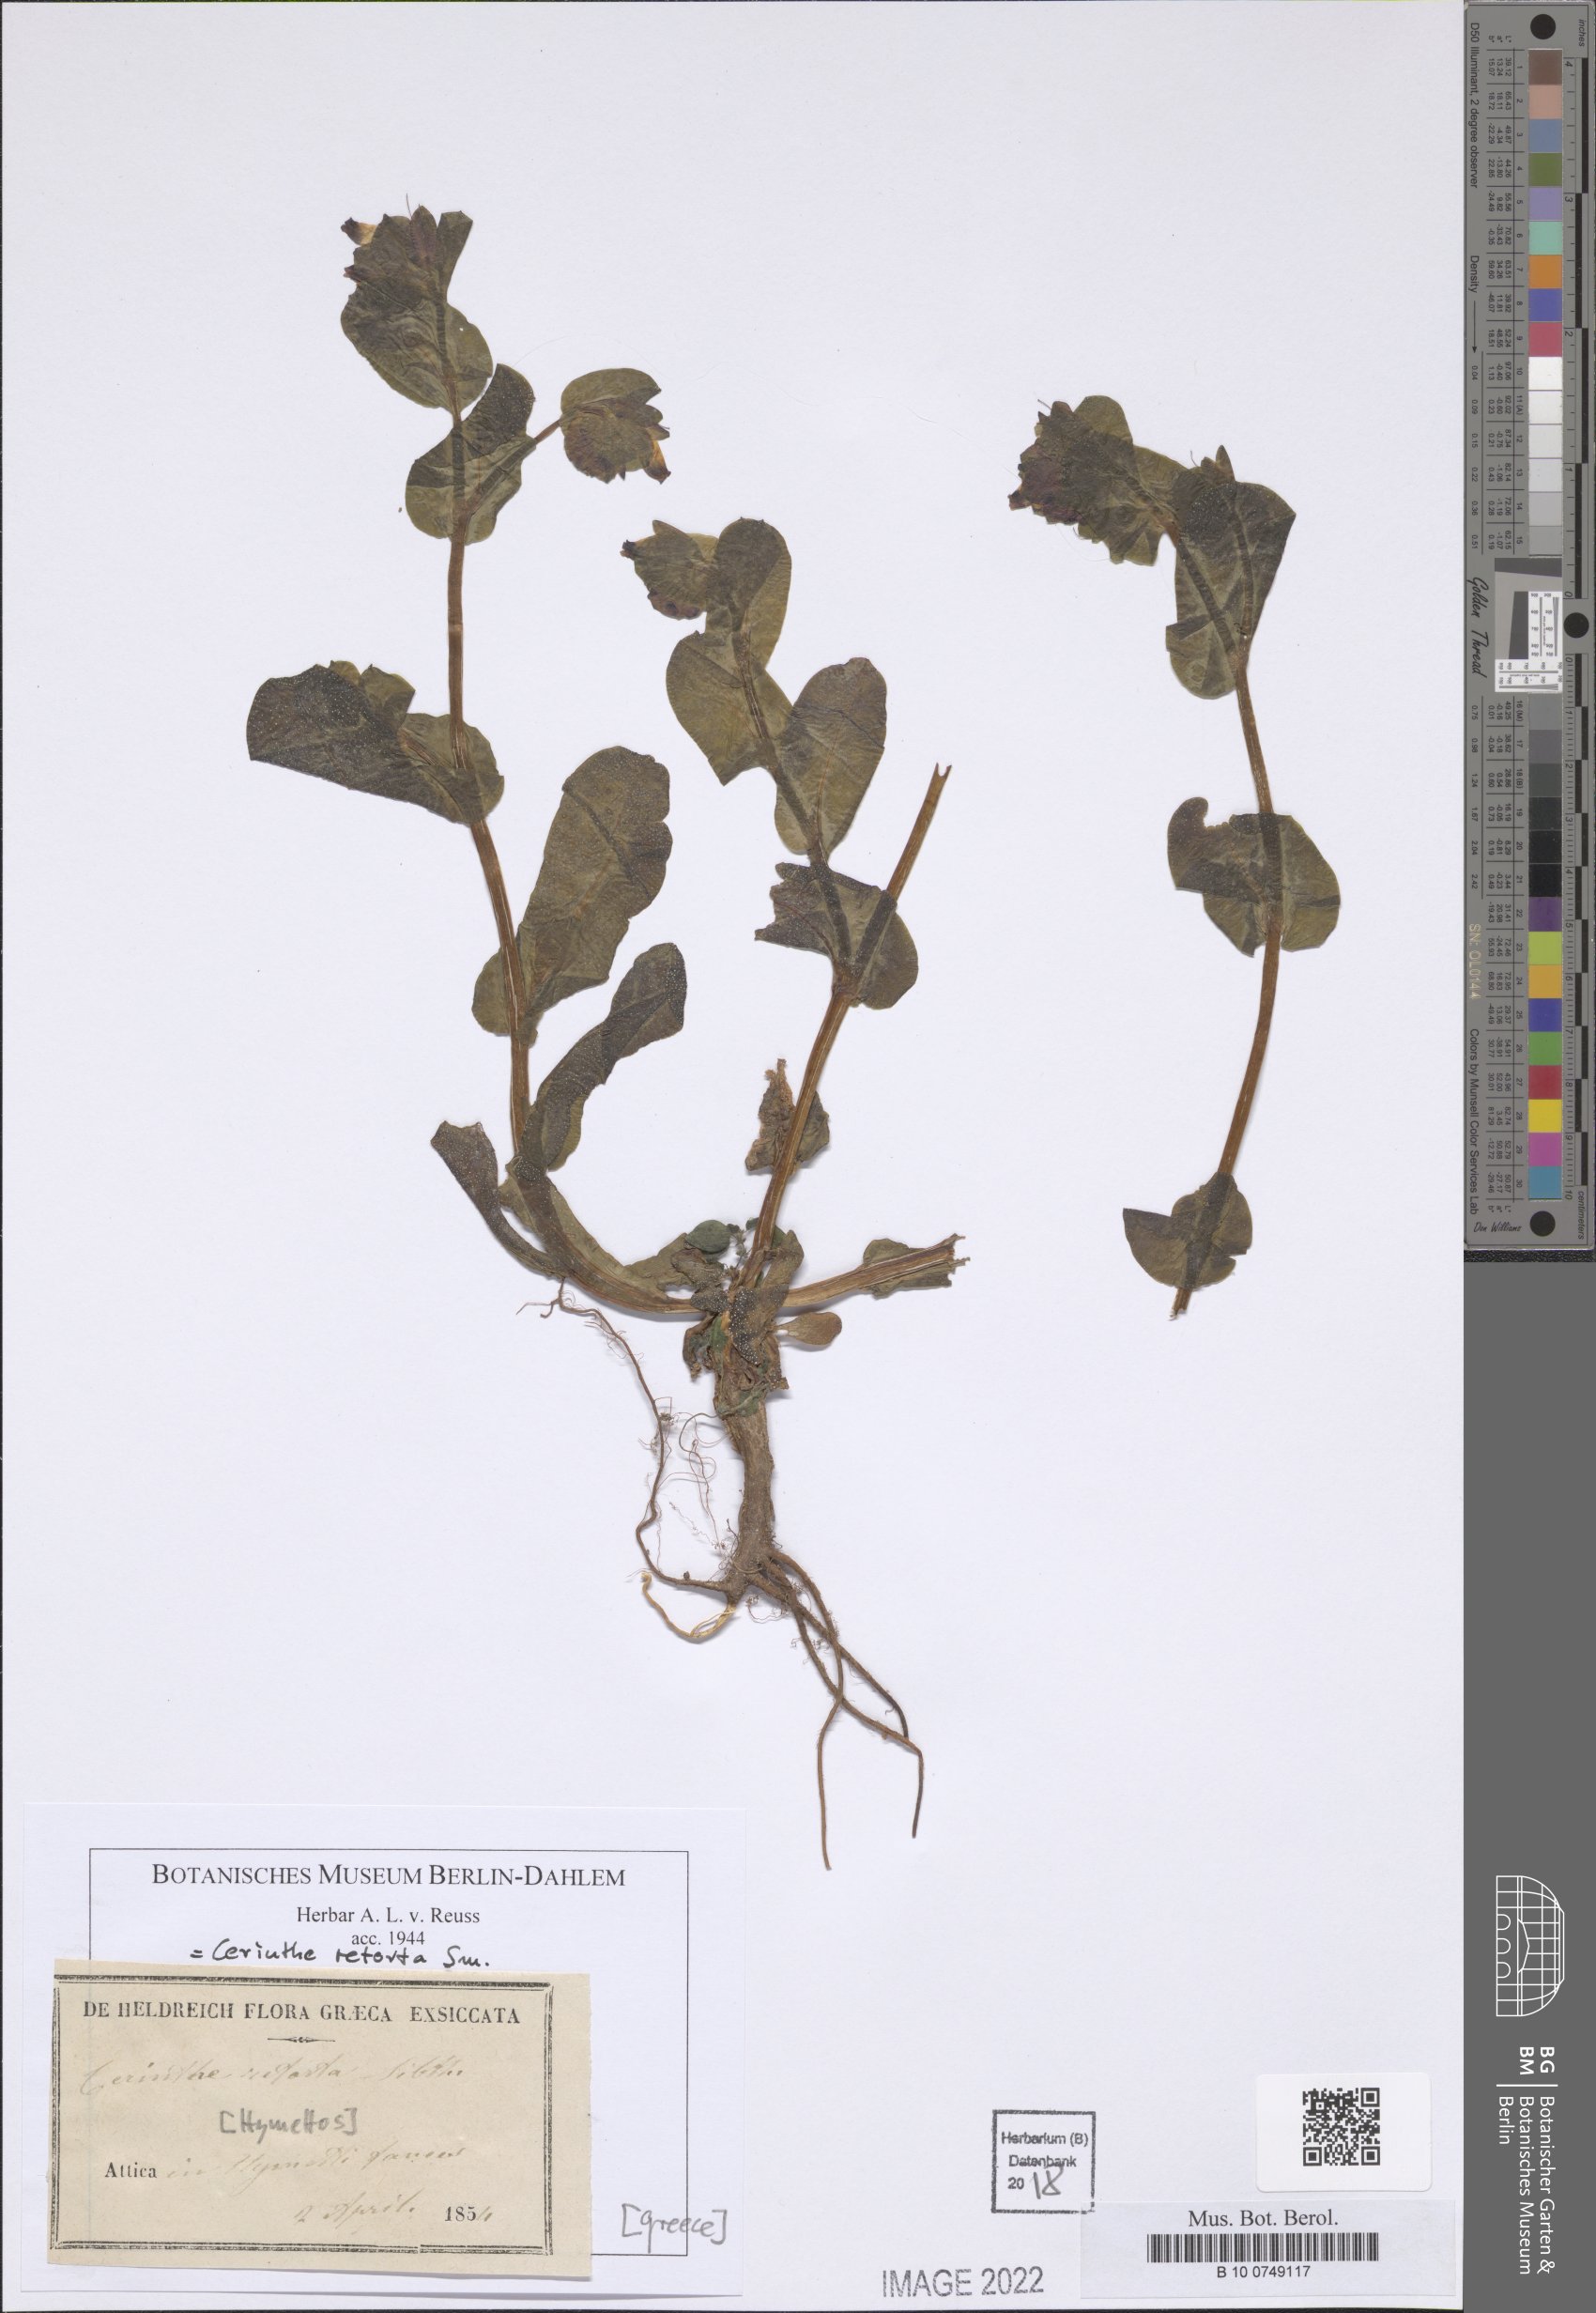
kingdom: Plantae
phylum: Tracheophyta
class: Magnoliopsida
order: Boraginales
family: Boraginaceae
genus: Cerinthe
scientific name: Cerinthe retorta
